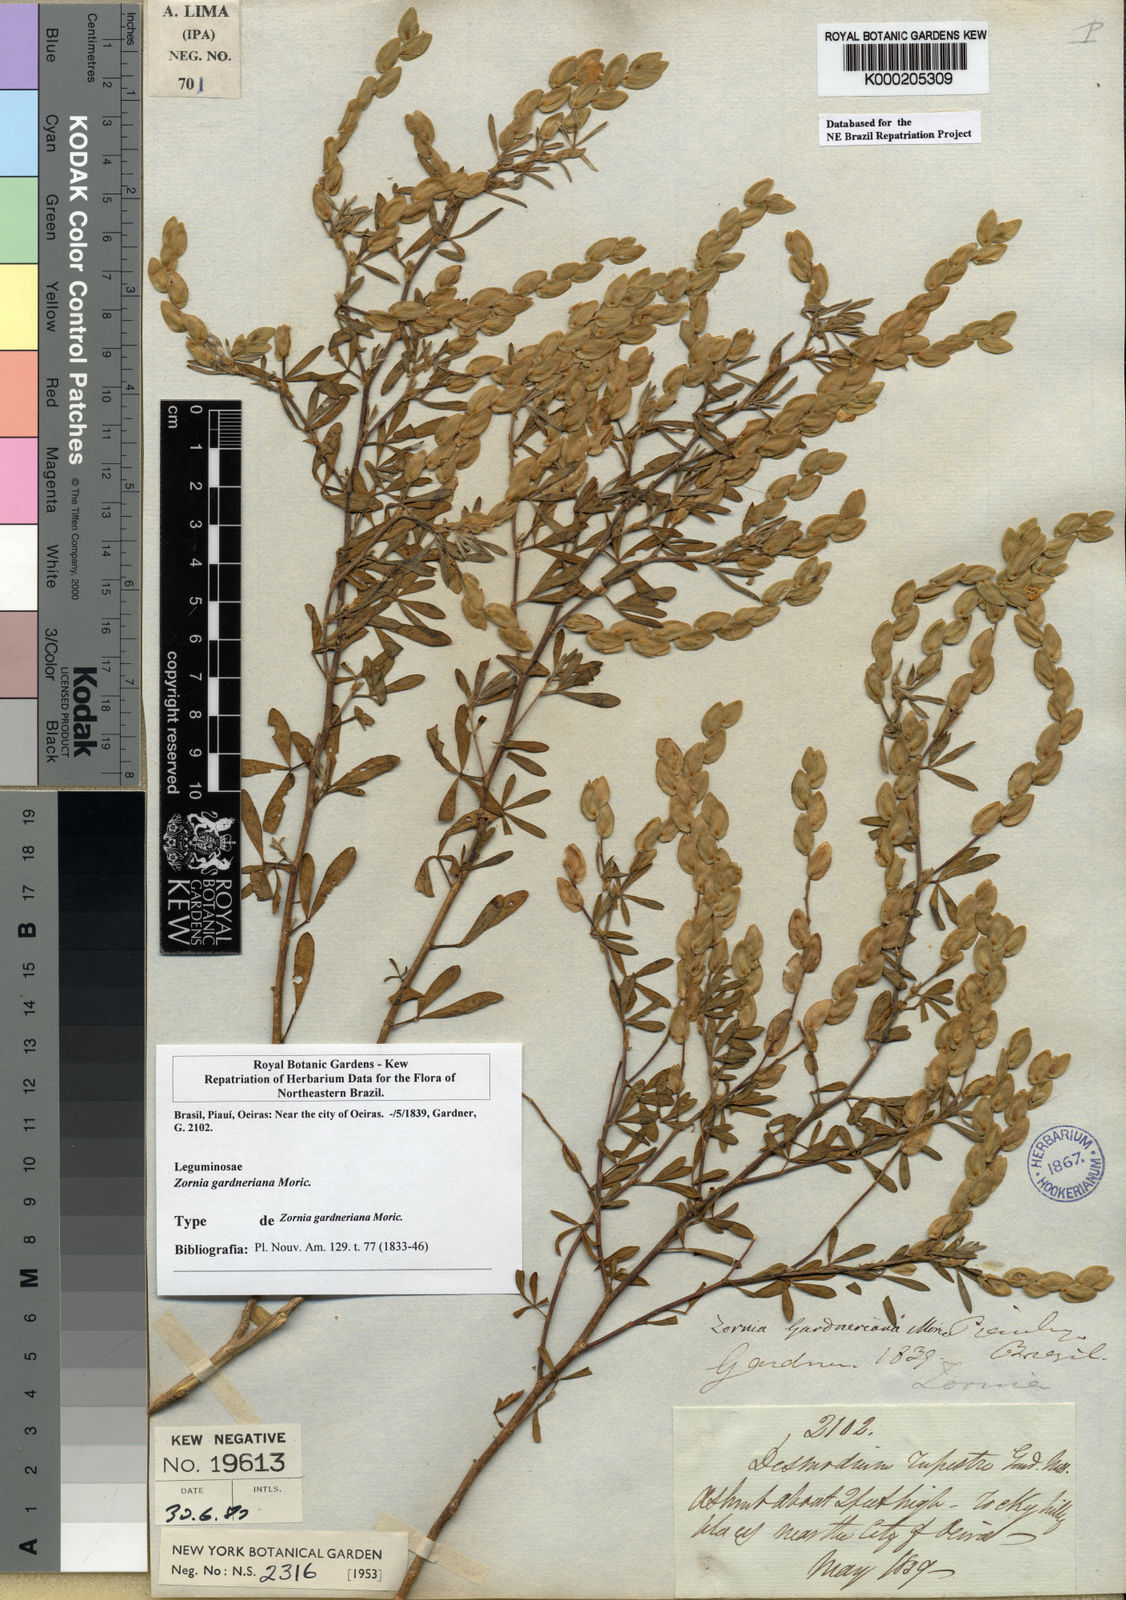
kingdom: Plantae
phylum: Tracheophyta
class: Magnoliopsida
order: Fabales
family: Fabaceae
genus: Zornia
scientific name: Zornia gardneriana
